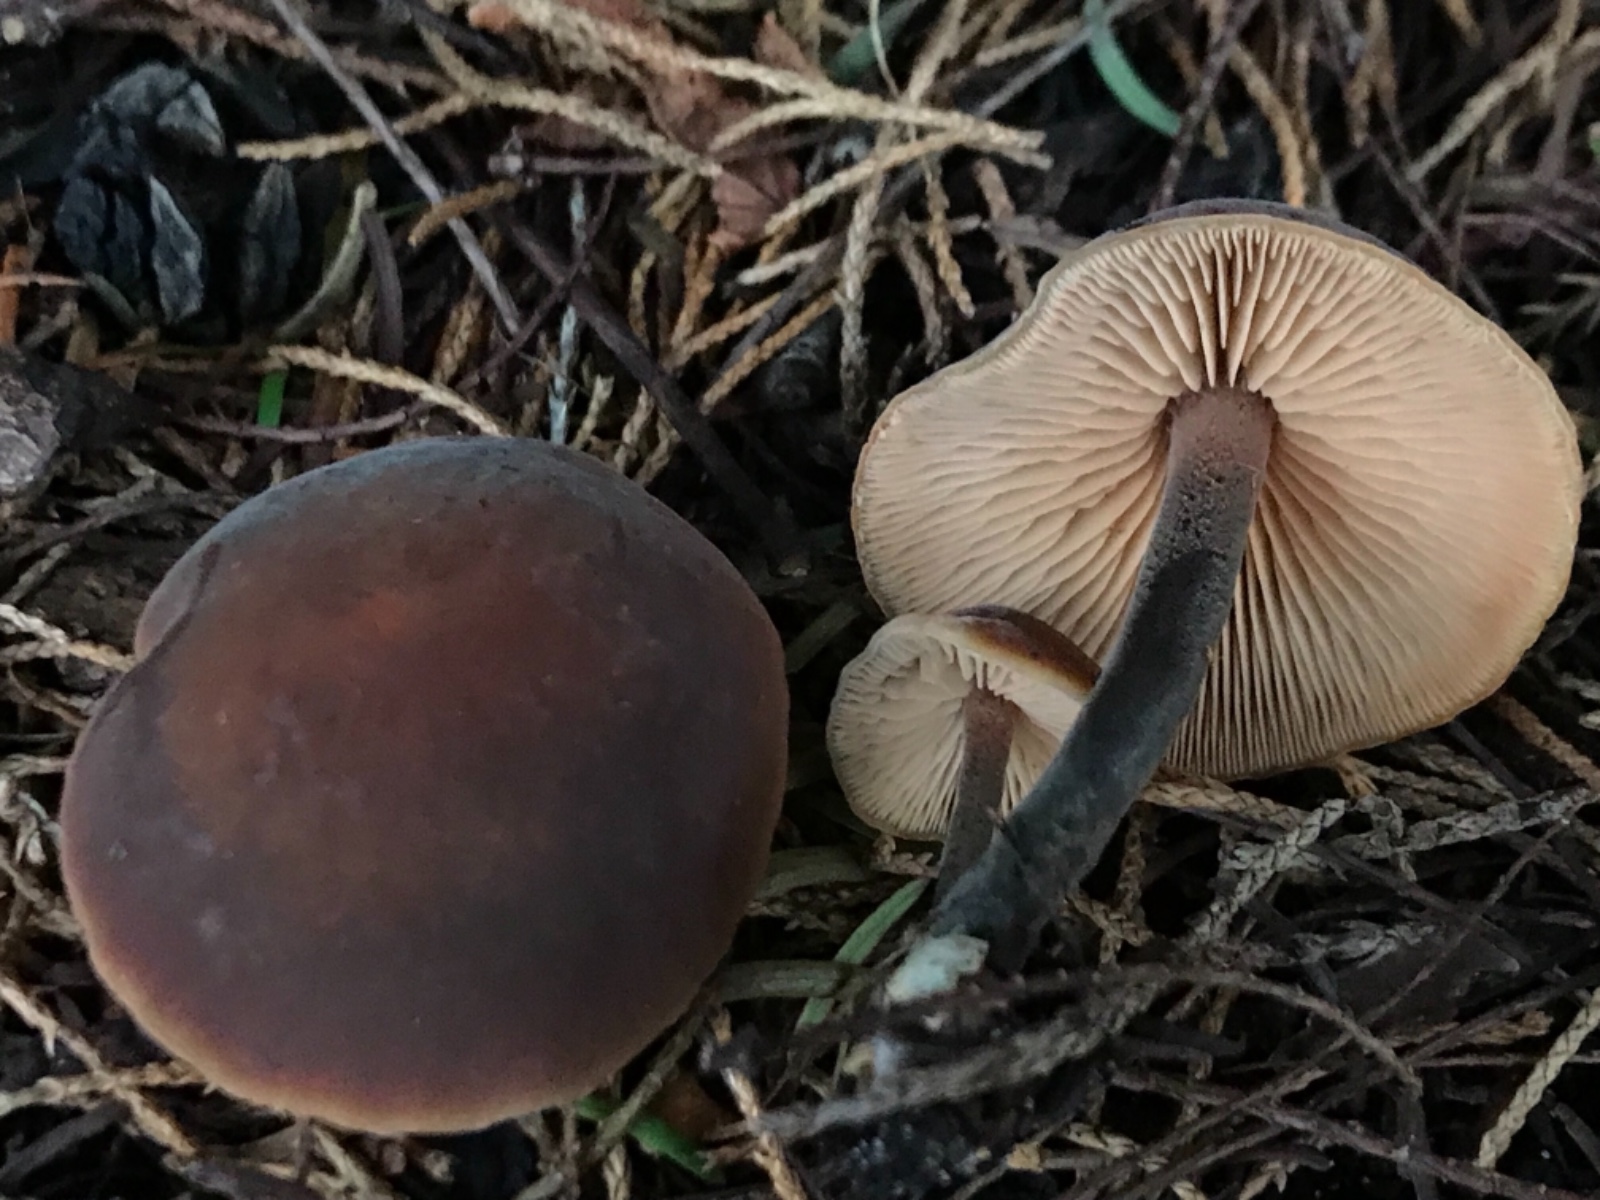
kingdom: Fungi
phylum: Basidiomycota
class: Agaricomycetes
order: Agaricales
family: Macrocystidiaceae
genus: Macrocystidia
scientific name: Macrocystidia cucumis
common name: agurkehat
